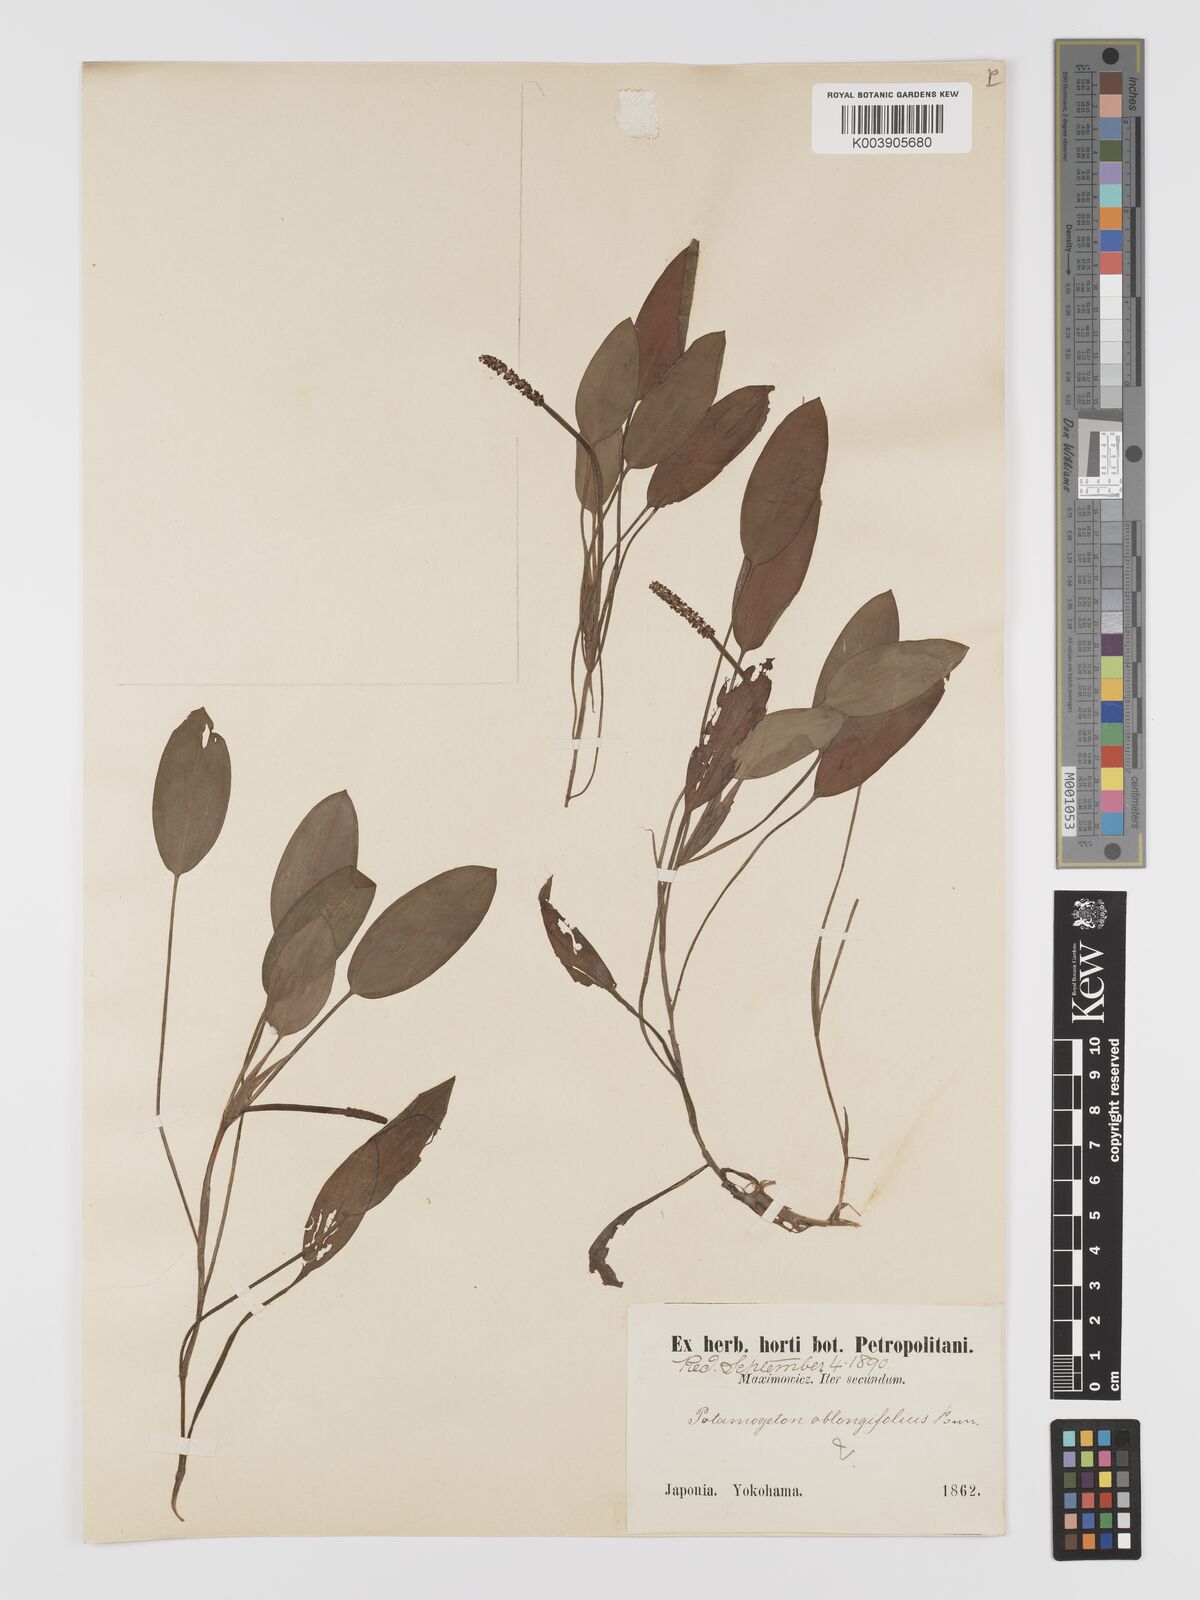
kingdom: Plantae
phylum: Tracheophyta
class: Liliopsida
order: Alismatales
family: Potamogetonaceae
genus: Potamogeton
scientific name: Potamogeton distinctus
